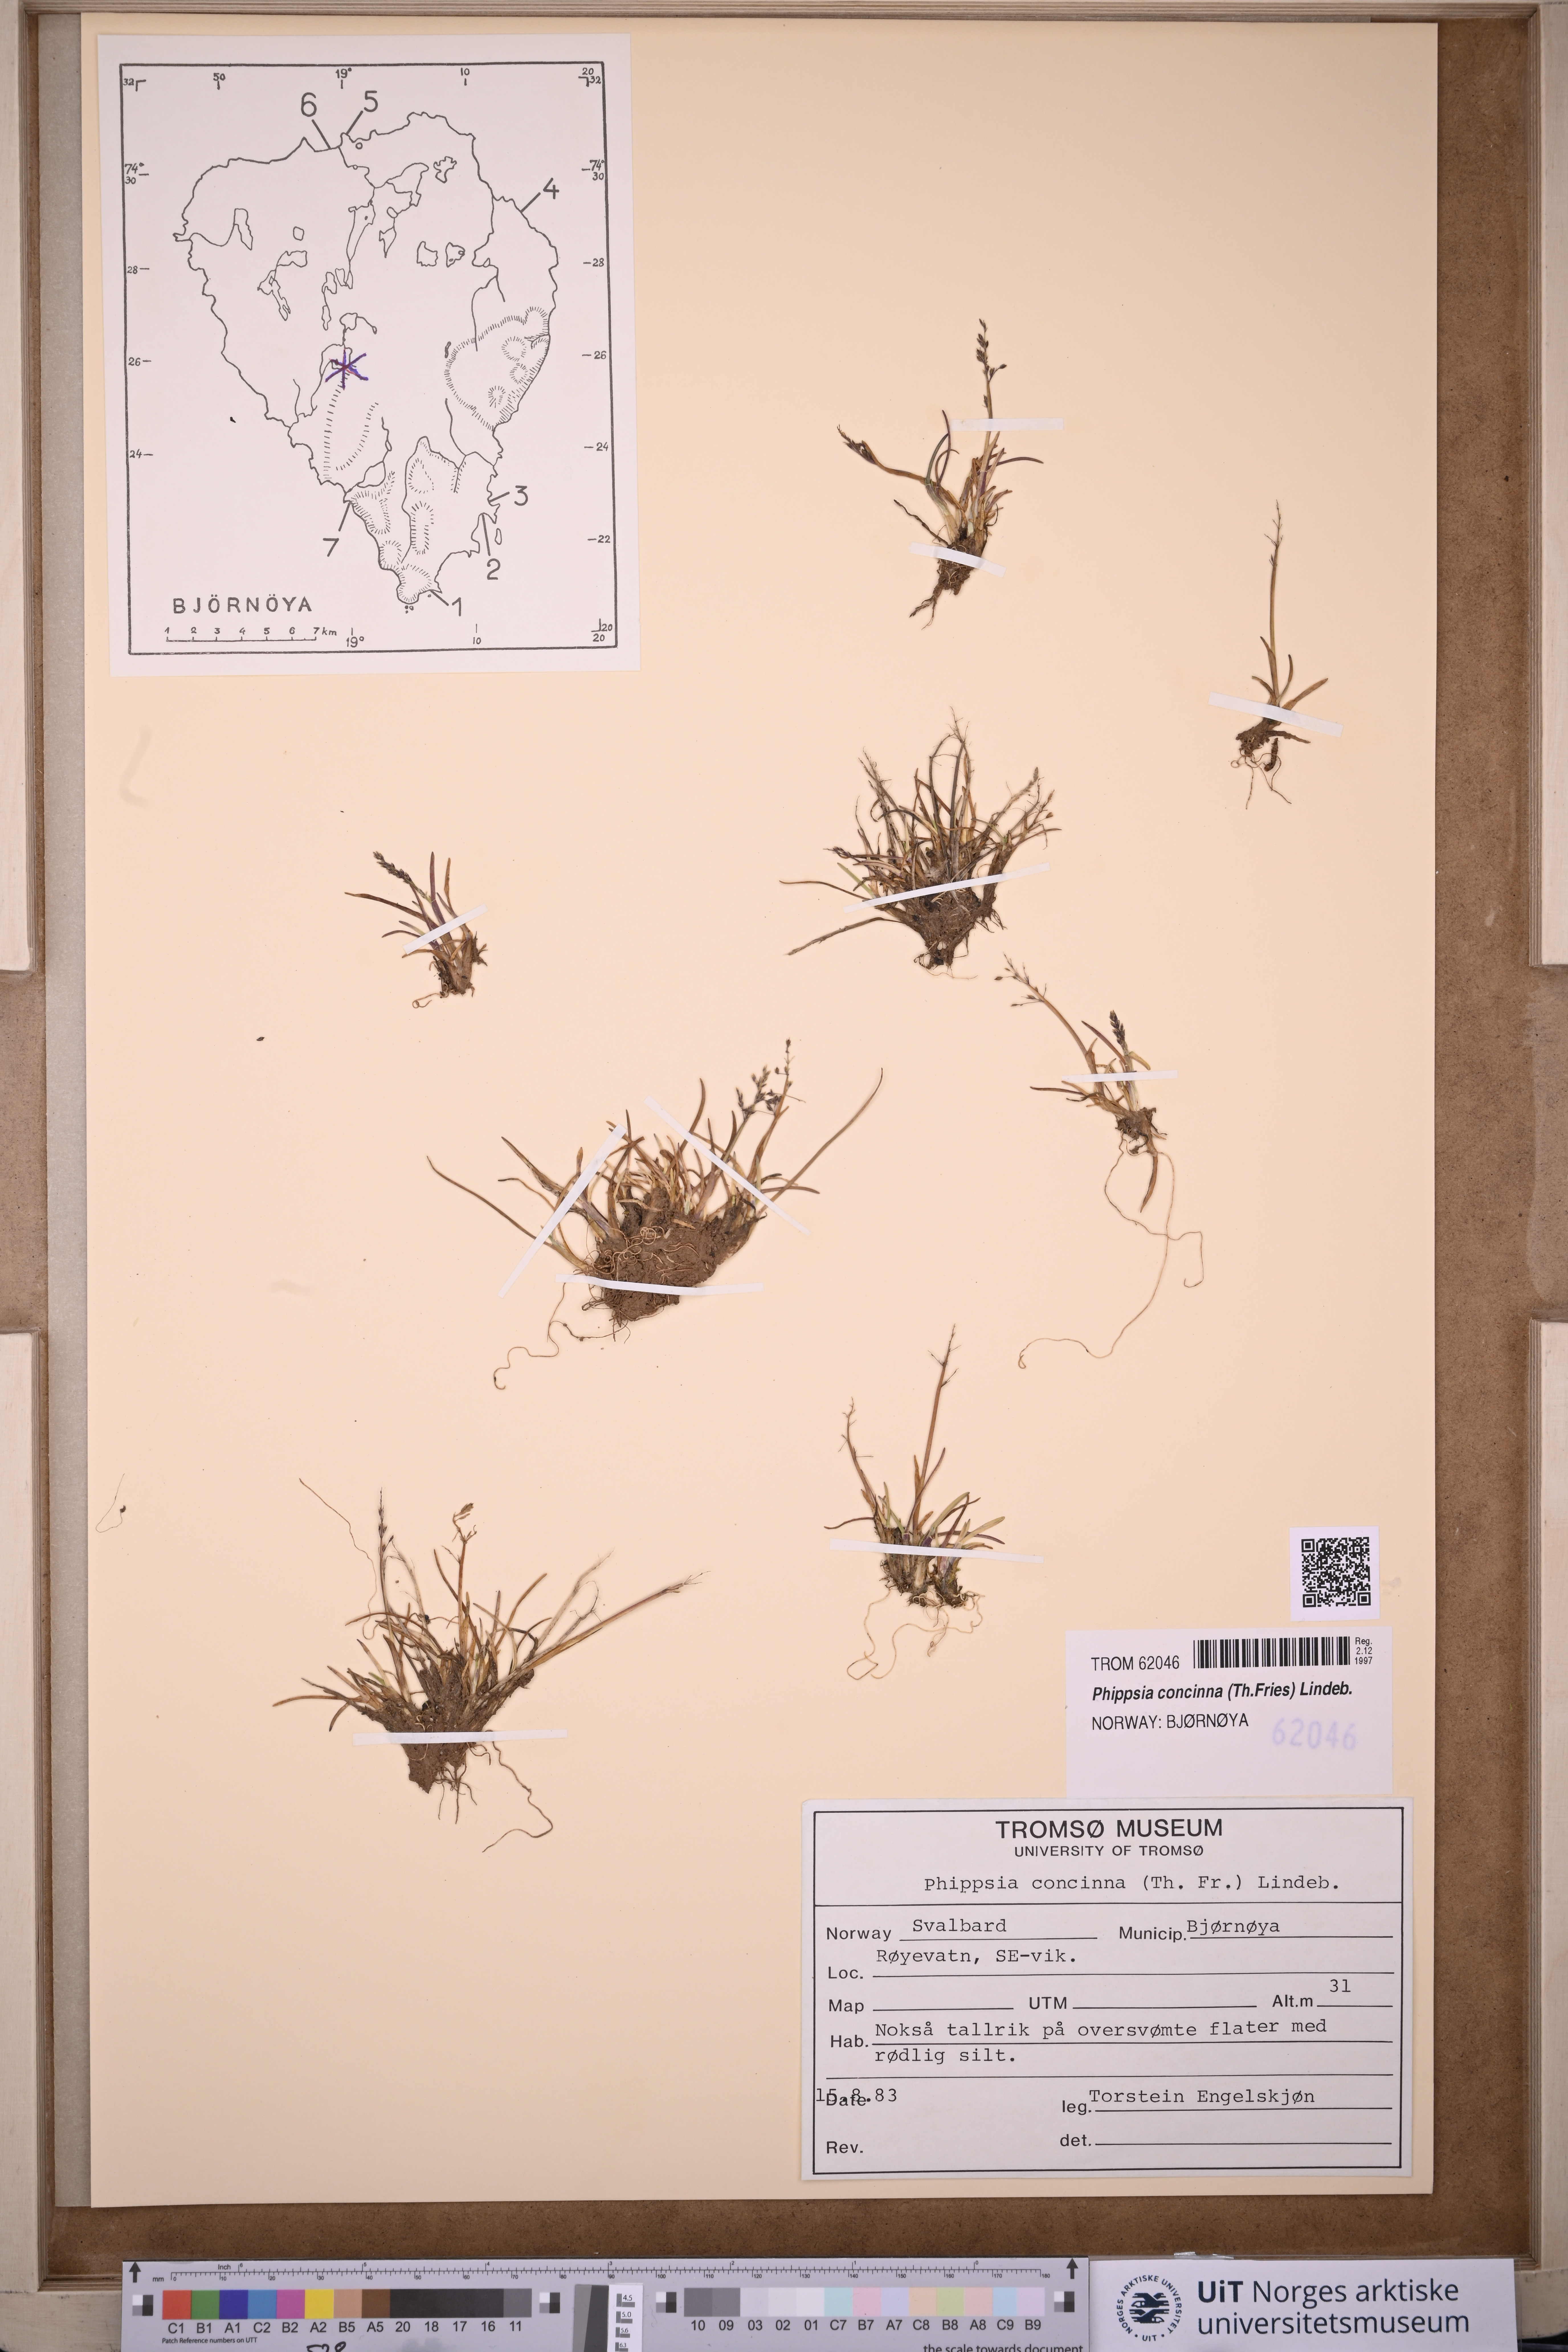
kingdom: Plantae
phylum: Tracheophyta
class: Liliopsida
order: Poales
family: Poaceae
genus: Phippsia
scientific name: Phippsia concinna
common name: Snowgrass
